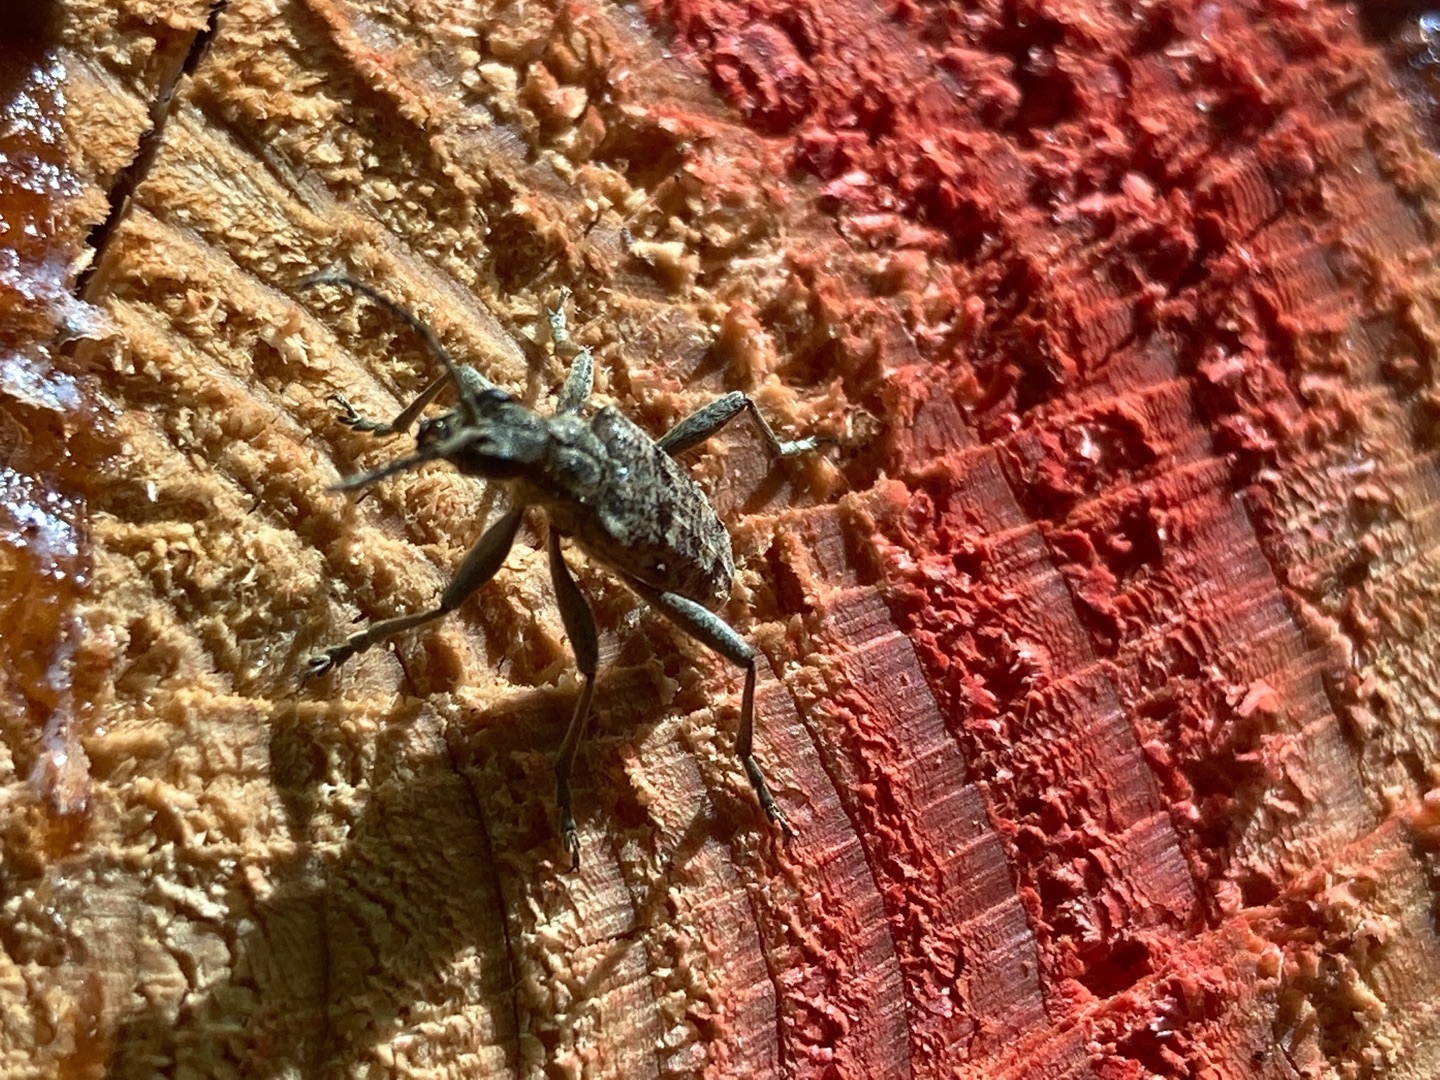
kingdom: Animalia
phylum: Arthropoda
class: Insecta
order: Coleoptera
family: Cerambycidae
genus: Rhagium
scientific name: Rhagium inquisitor
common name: Fyrretandbuk
